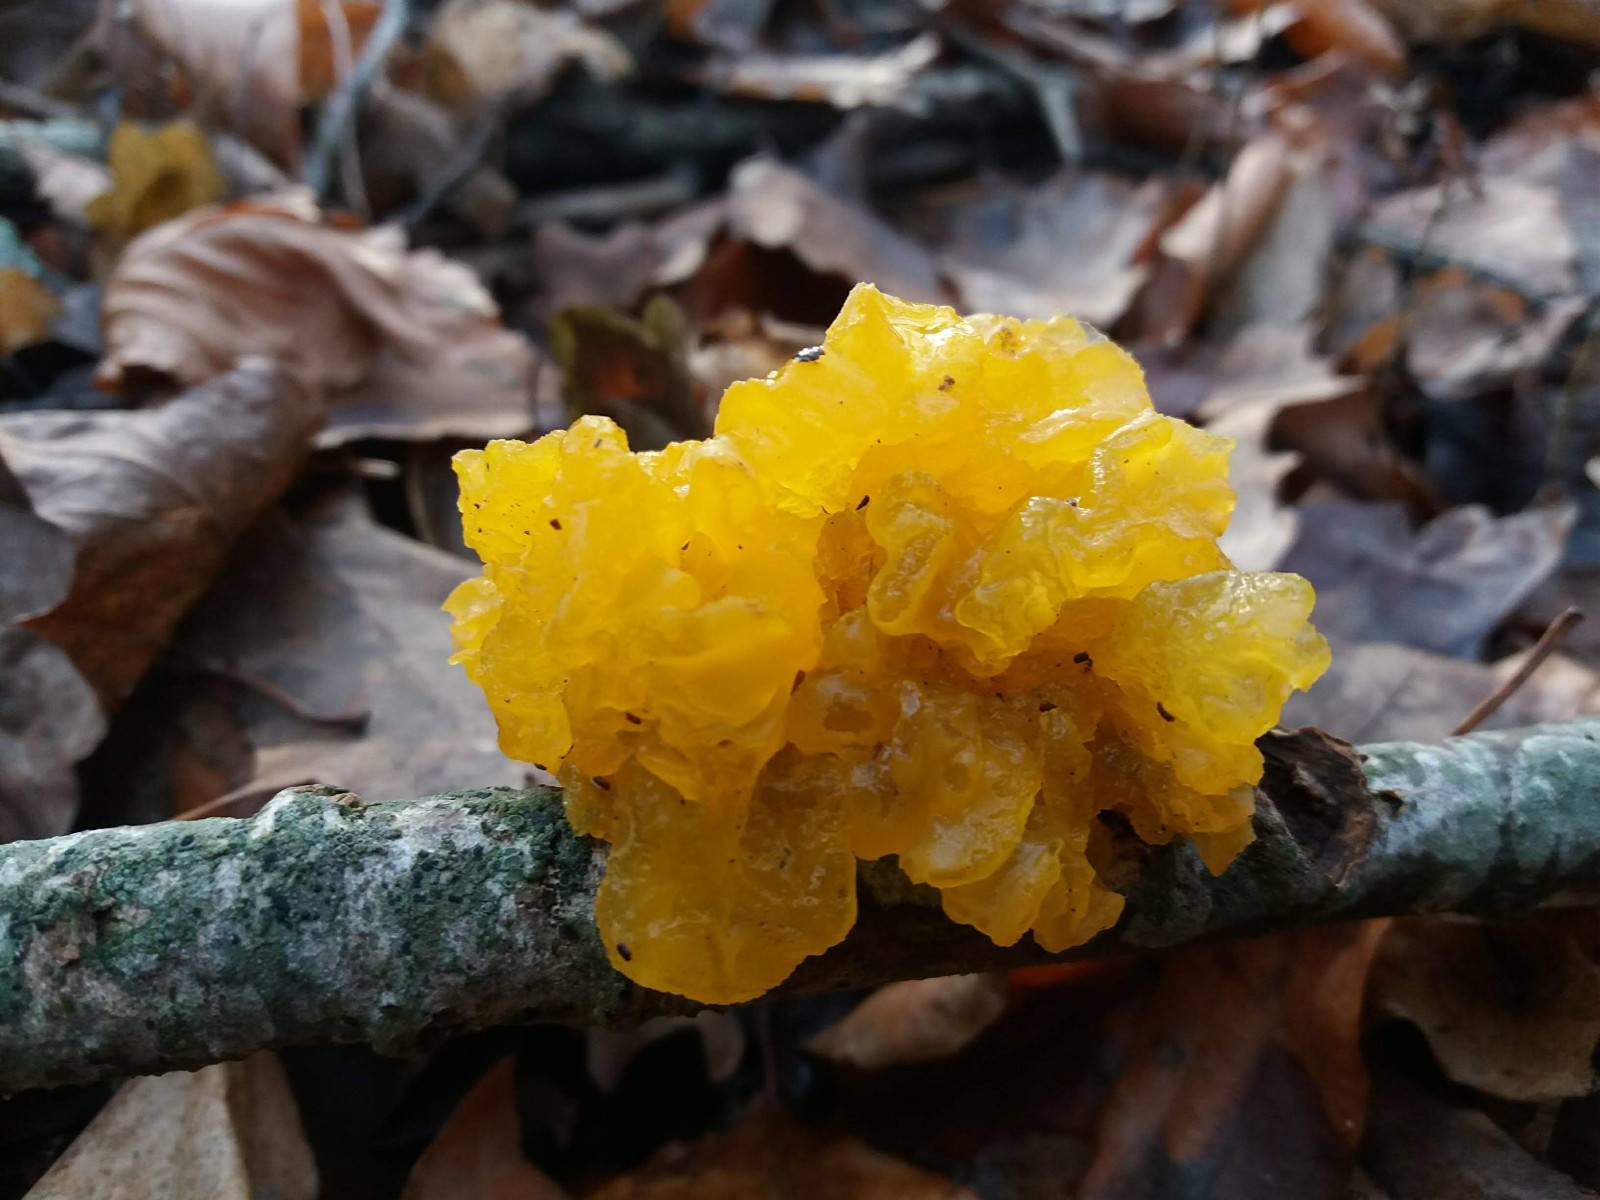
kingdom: Fungi
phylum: Basidiomycota
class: Tremellomycetes
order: Tremellales
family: Tremellaceae
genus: Tremella
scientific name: Tremella mesenterica
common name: gul bævresvamp
